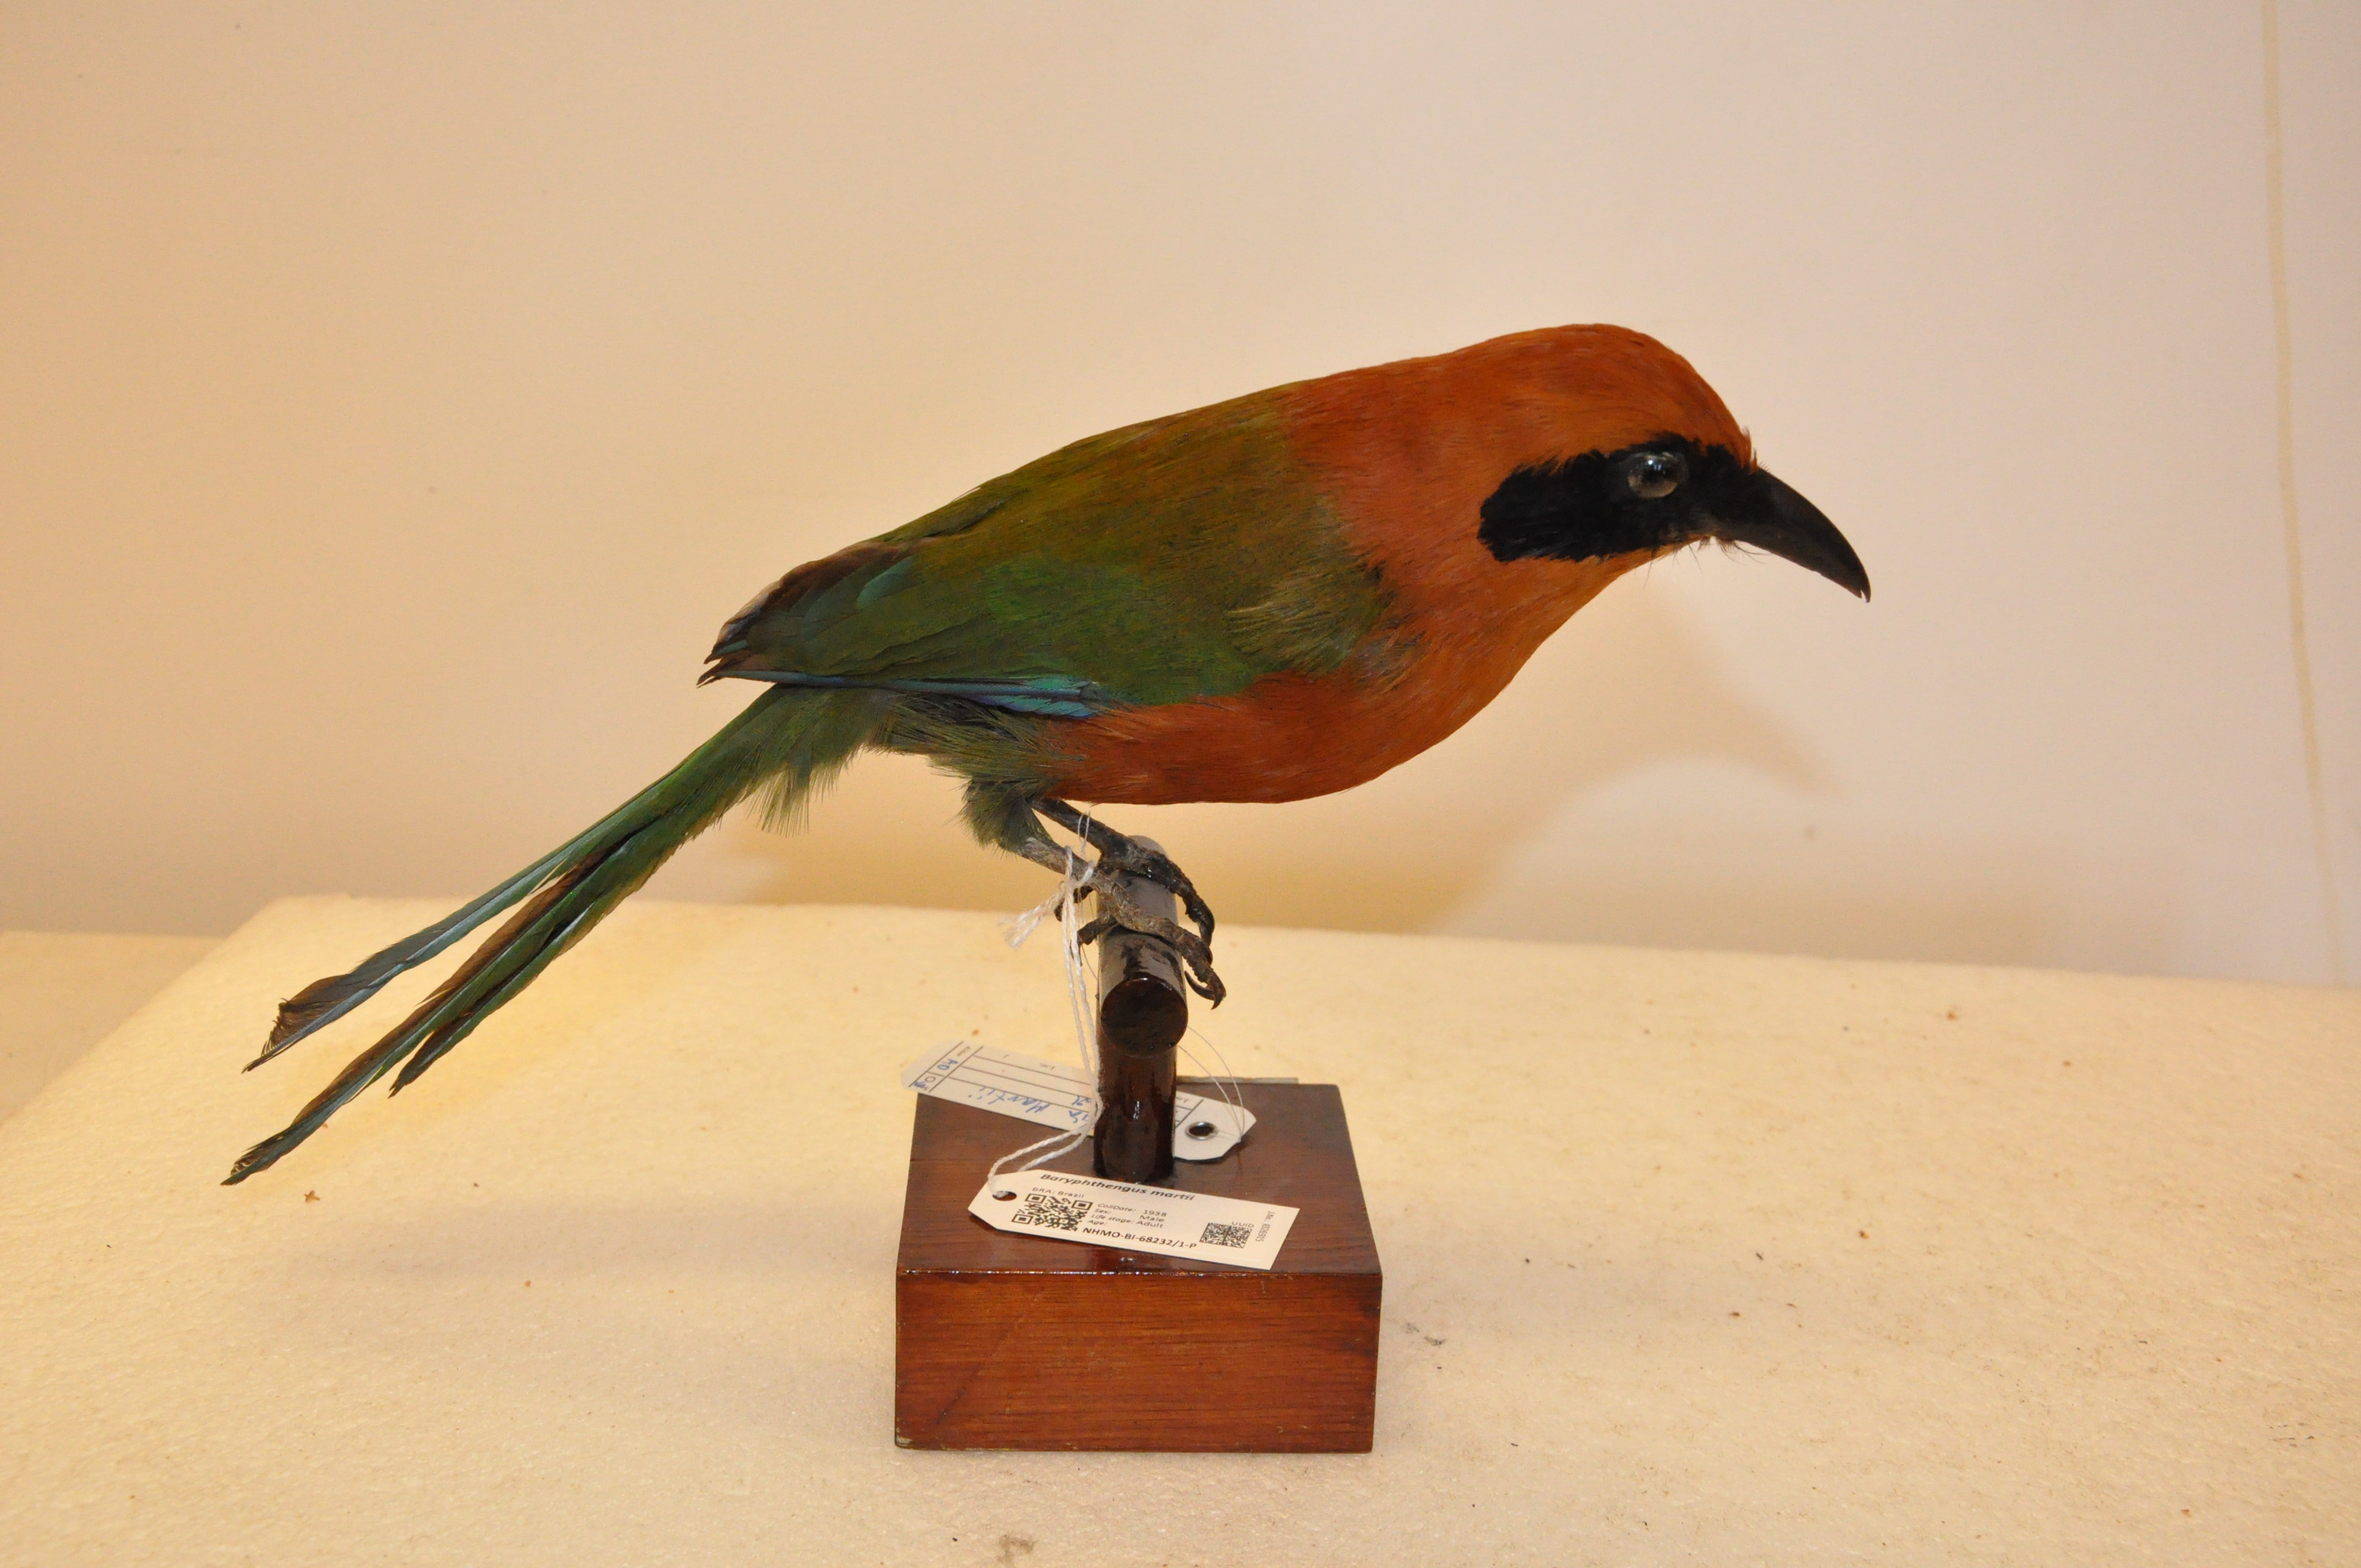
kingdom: Animalia
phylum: Chordata
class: Aves
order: Coraciiformes
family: Momotidae
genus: Baryphthengus
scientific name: Baryphthengus martii
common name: Rufous motmot
